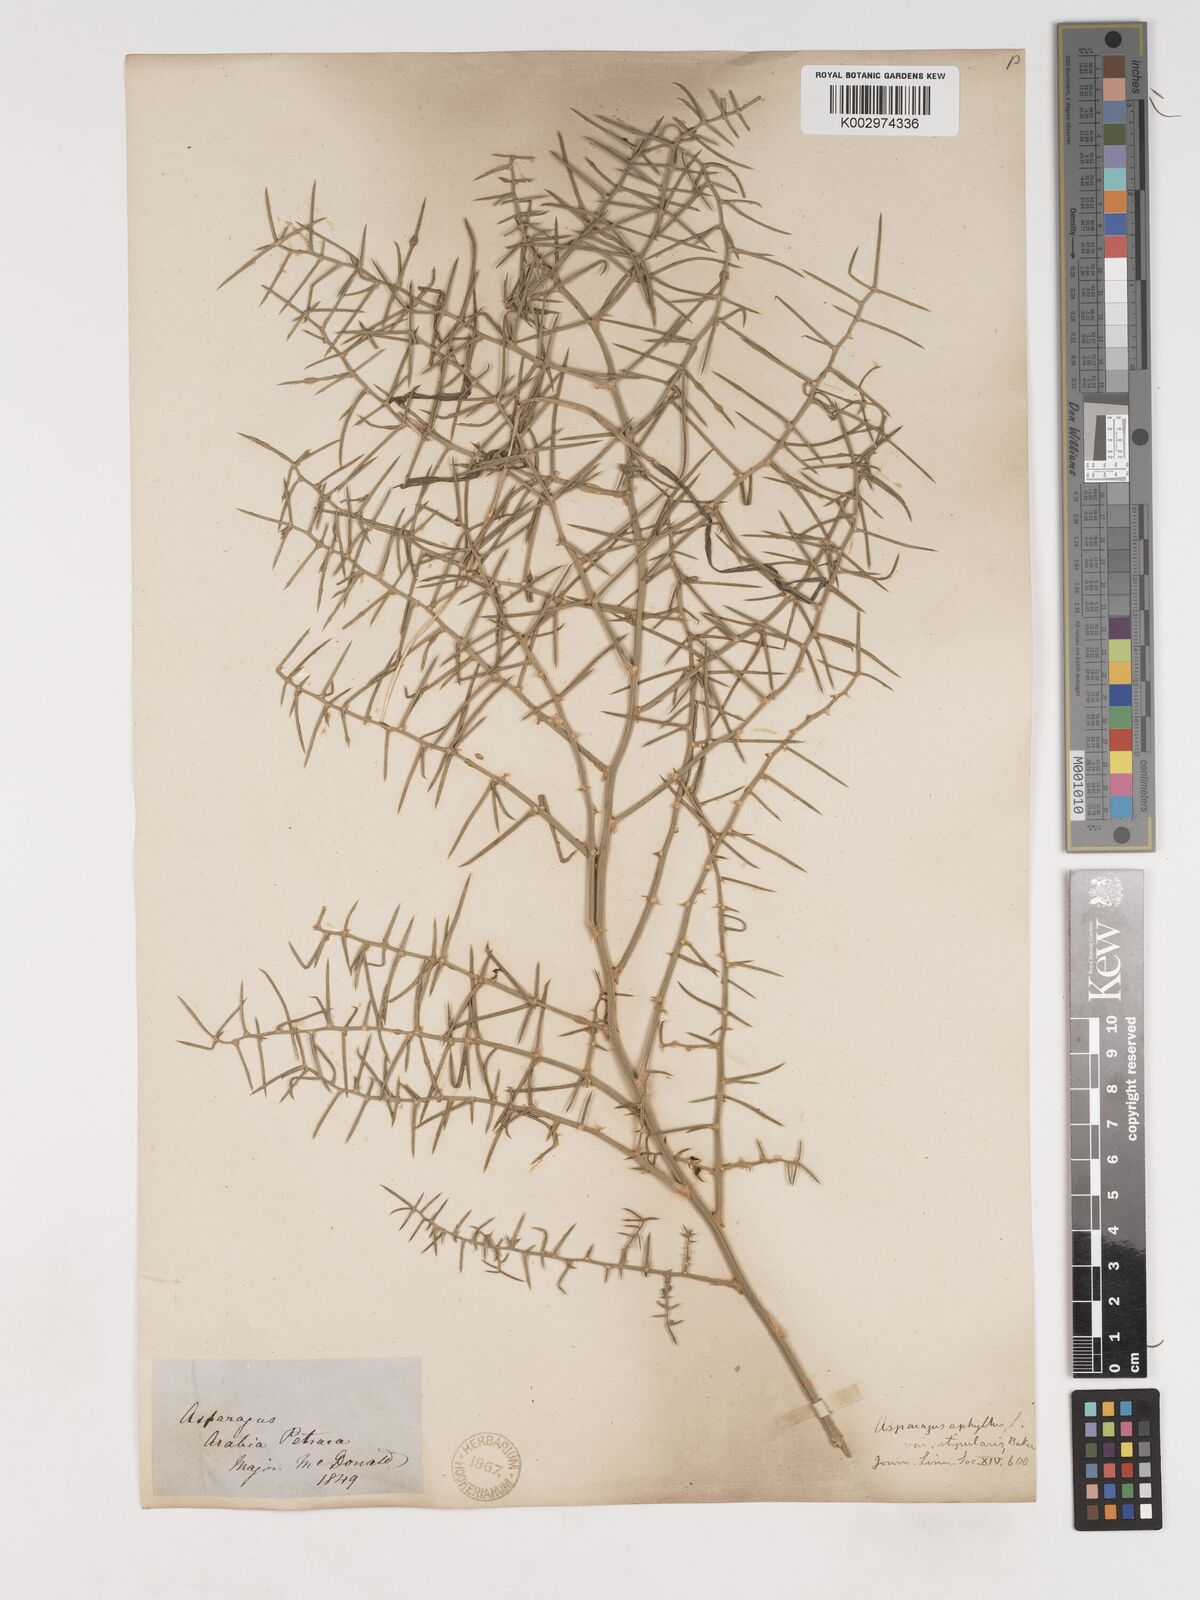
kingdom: Plantae
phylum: Tracheophyta
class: Liliopsida
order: Asparagales
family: Asparagaceae
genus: Asparagus
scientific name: Asparagus horridus
